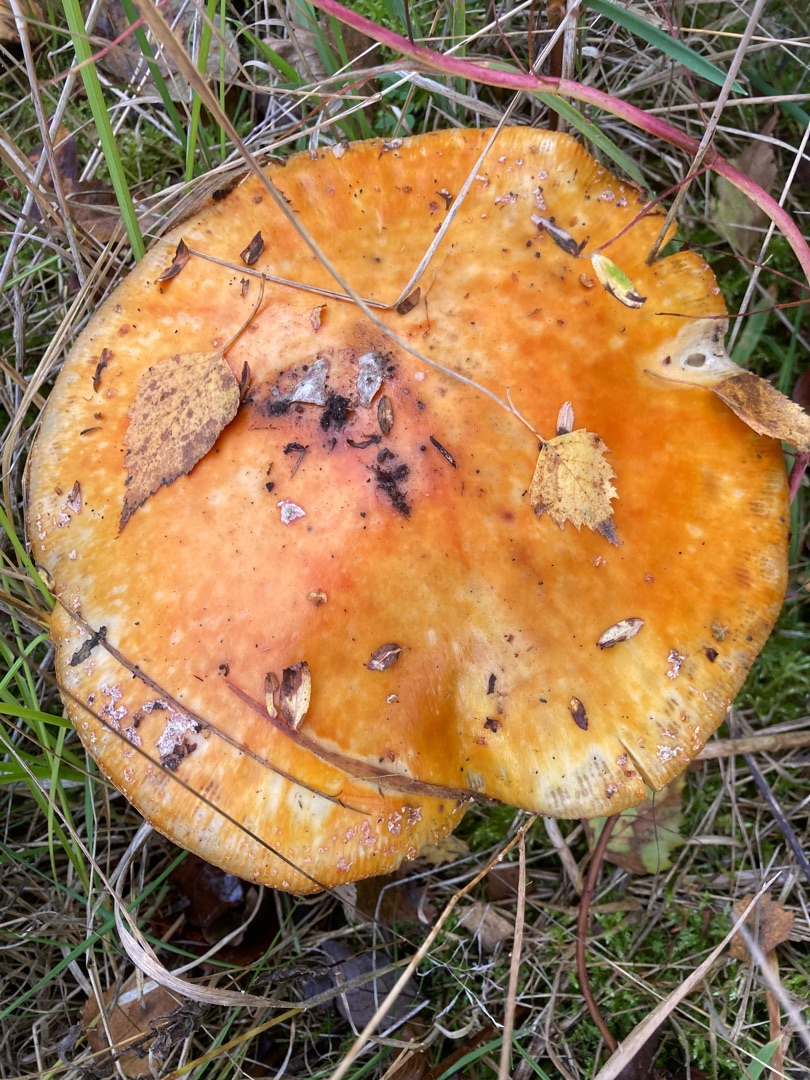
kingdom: Fungi
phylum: Basidiomycota
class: Agaricomycetes
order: Agaricales
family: Amanitaceae
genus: Amanita
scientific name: Amanita muscaria
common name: Rød fluesvamp
